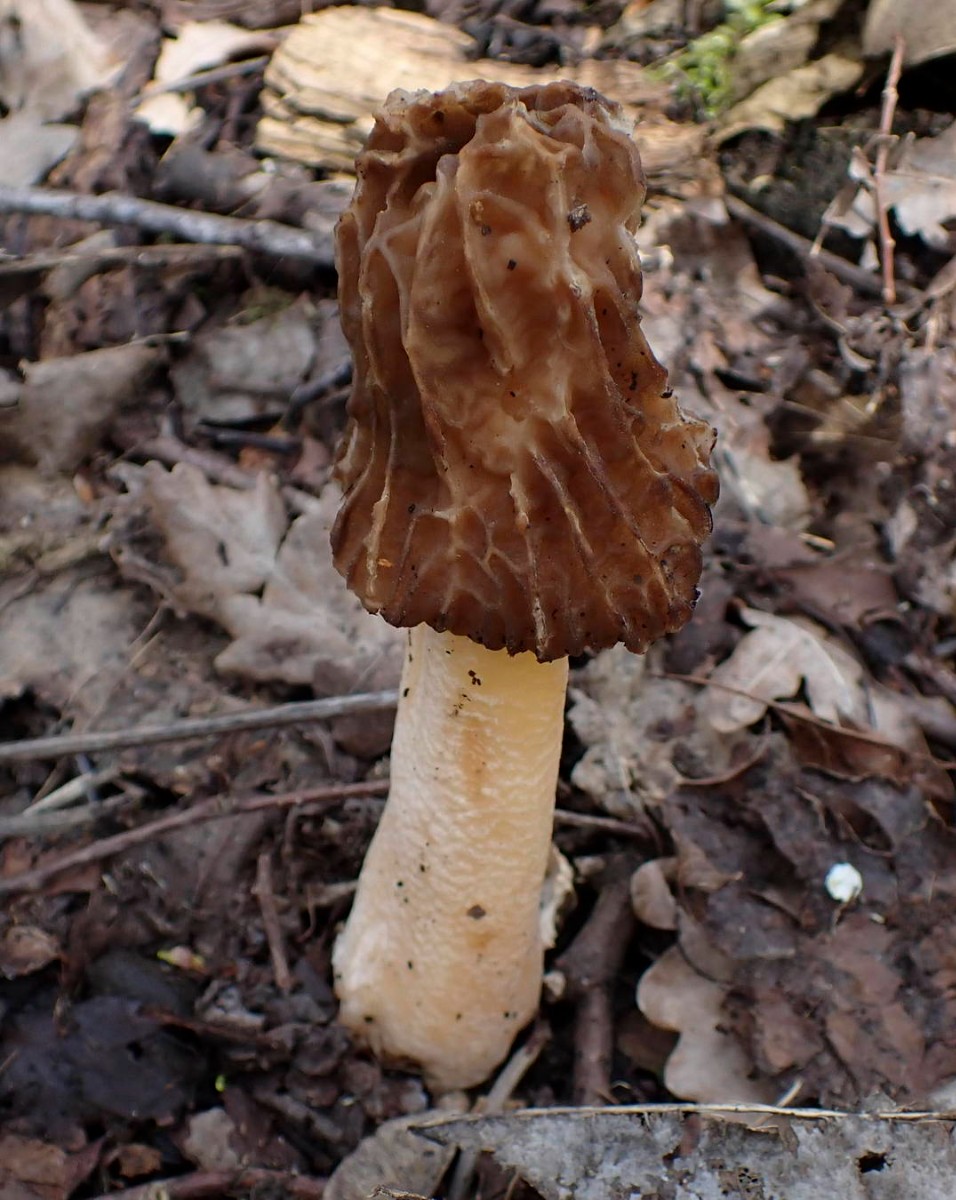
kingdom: Fungi
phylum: Ascomycota
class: Pezizomycetes
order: Pezizales
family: Morchellaceae
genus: Verpa
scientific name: Verpa bohemica
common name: rynket klokkemorkel
